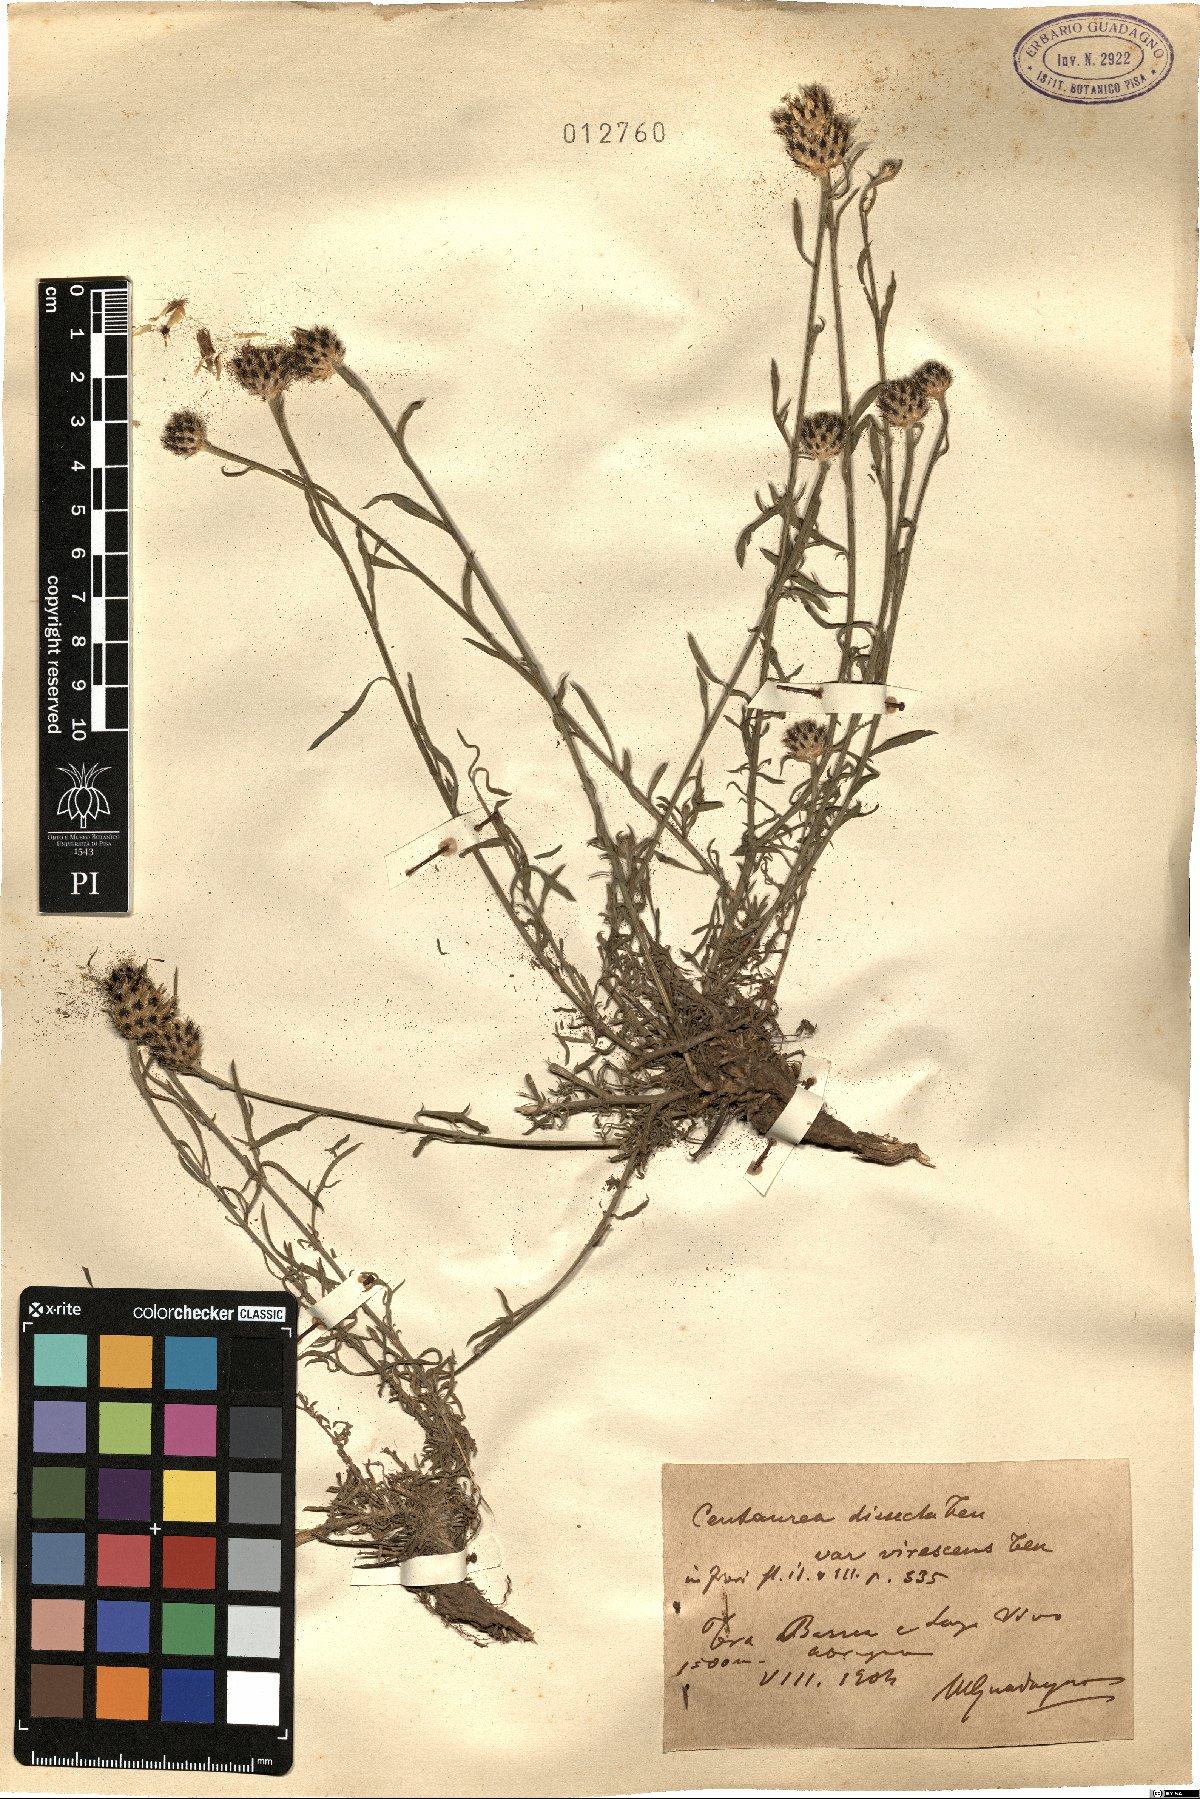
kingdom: Plantae
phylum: Tracheophyta
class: Magnoliopsida
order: Asterales
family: Asteraceae
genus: Centaurea
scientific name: Centaurea tenorei
